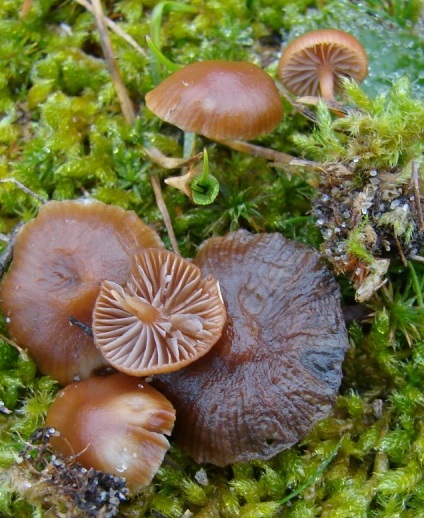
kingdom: Fungi
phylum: Basidiomycota
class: Agaricomycetes
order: Agaricales
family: Strophariaceae
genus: Deconica
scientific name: Deconica montana
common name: rødbrun stråhat
